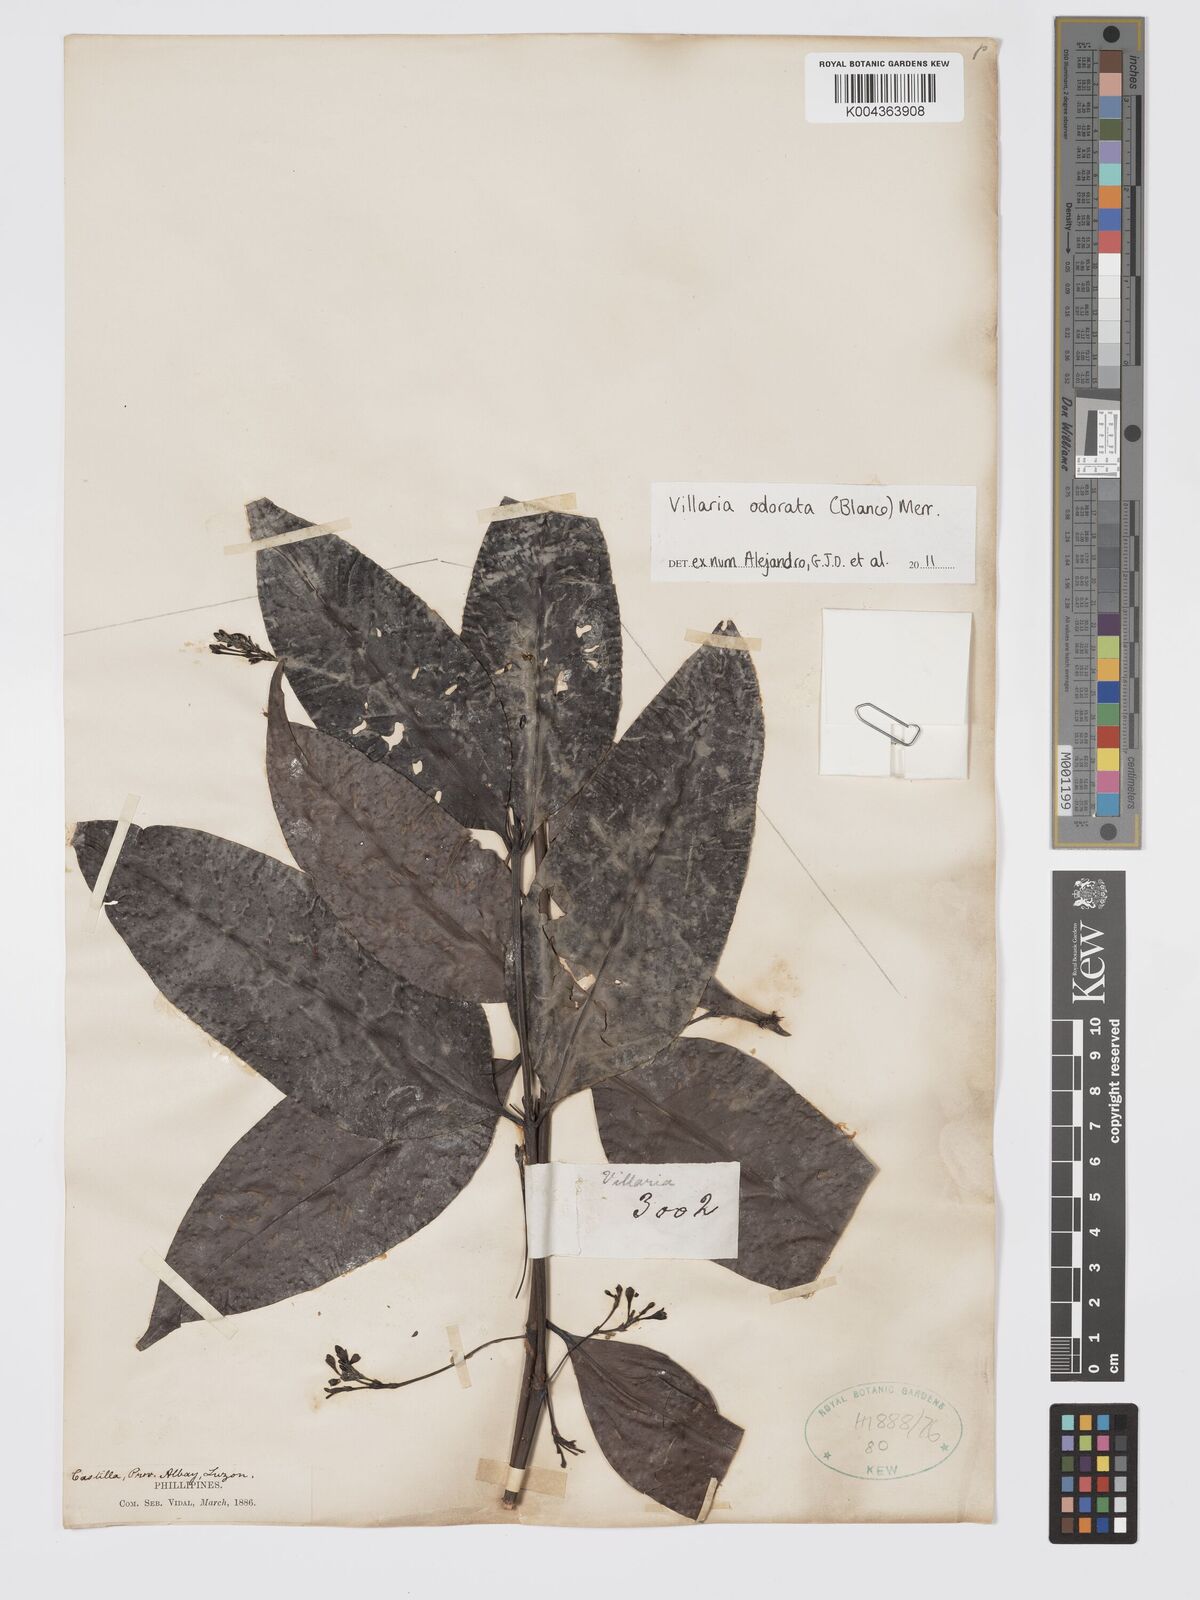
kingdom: Plantae
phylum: Tracheophyta
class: Magnoliopsida
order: Gentianales
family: Rubiaceae
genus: Villaria
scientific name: Villaria odorata
